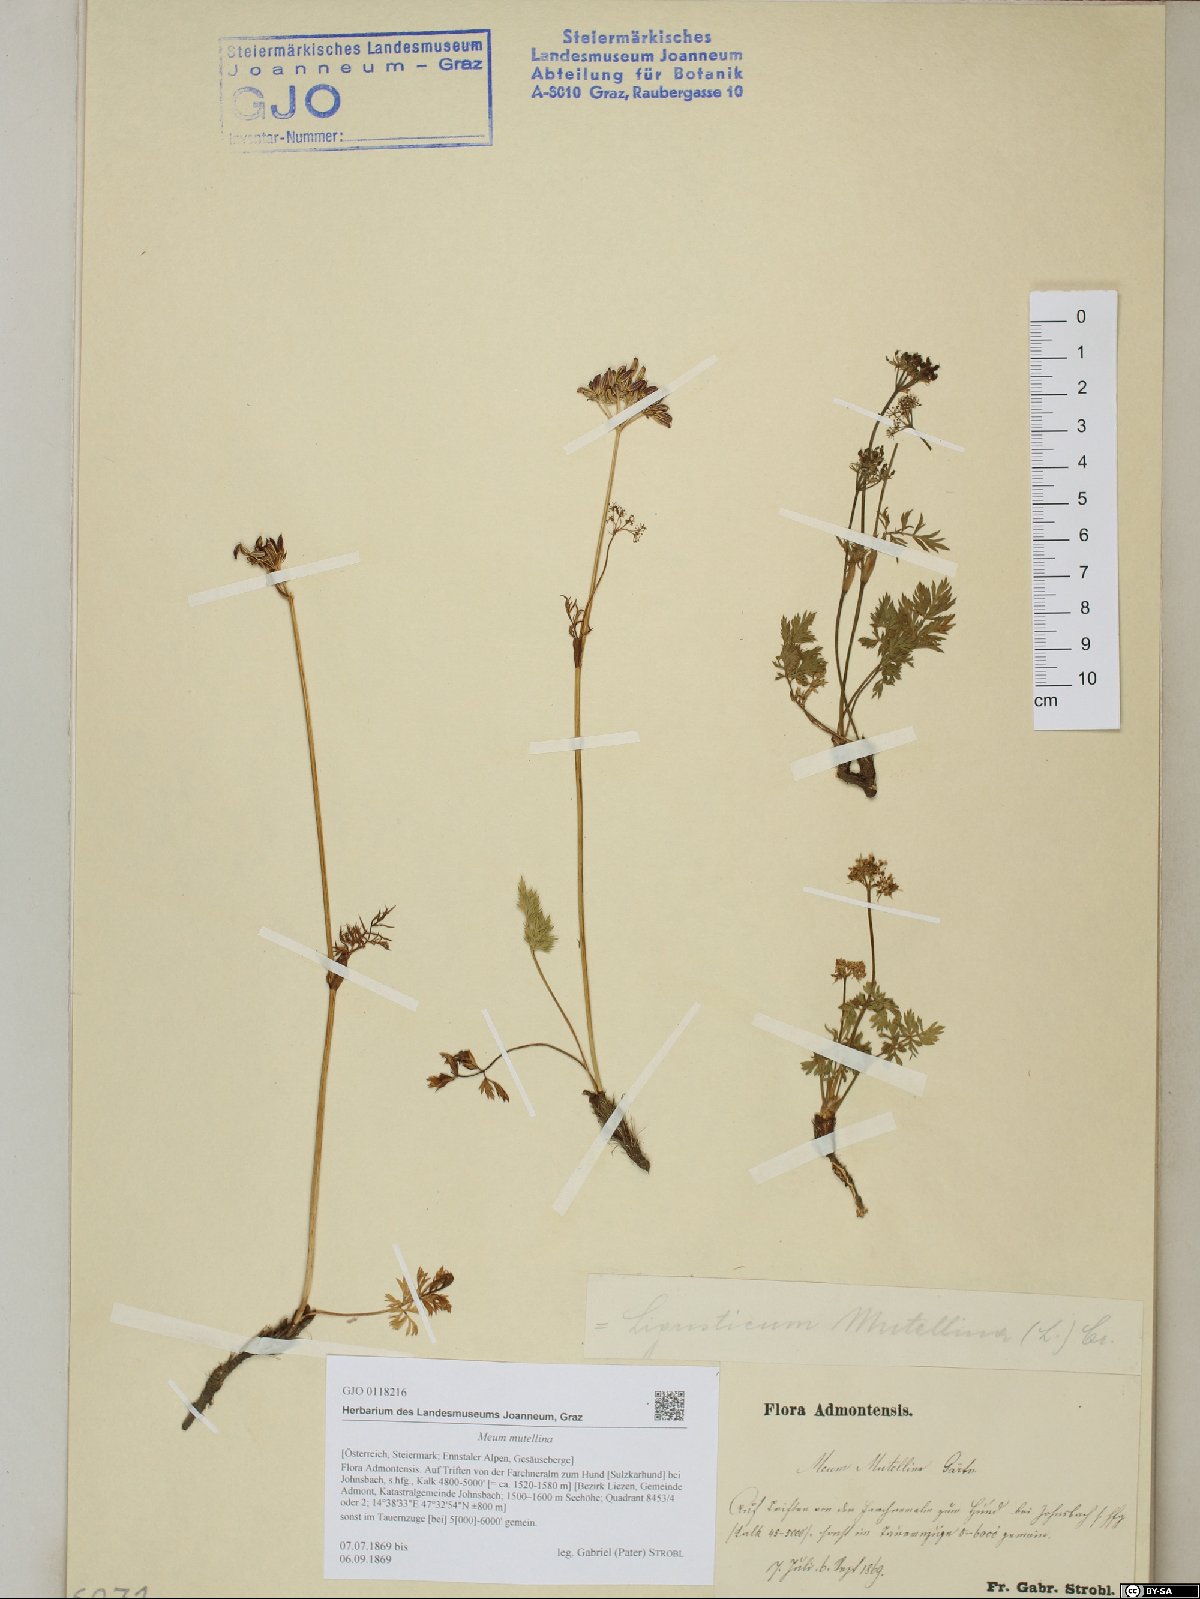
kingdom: Plantae
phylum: Tracheophyta
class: Magnoliopsida
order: Apiales
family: Apiaceae
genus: Mutellina
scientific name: Mutellina adonidifolia
